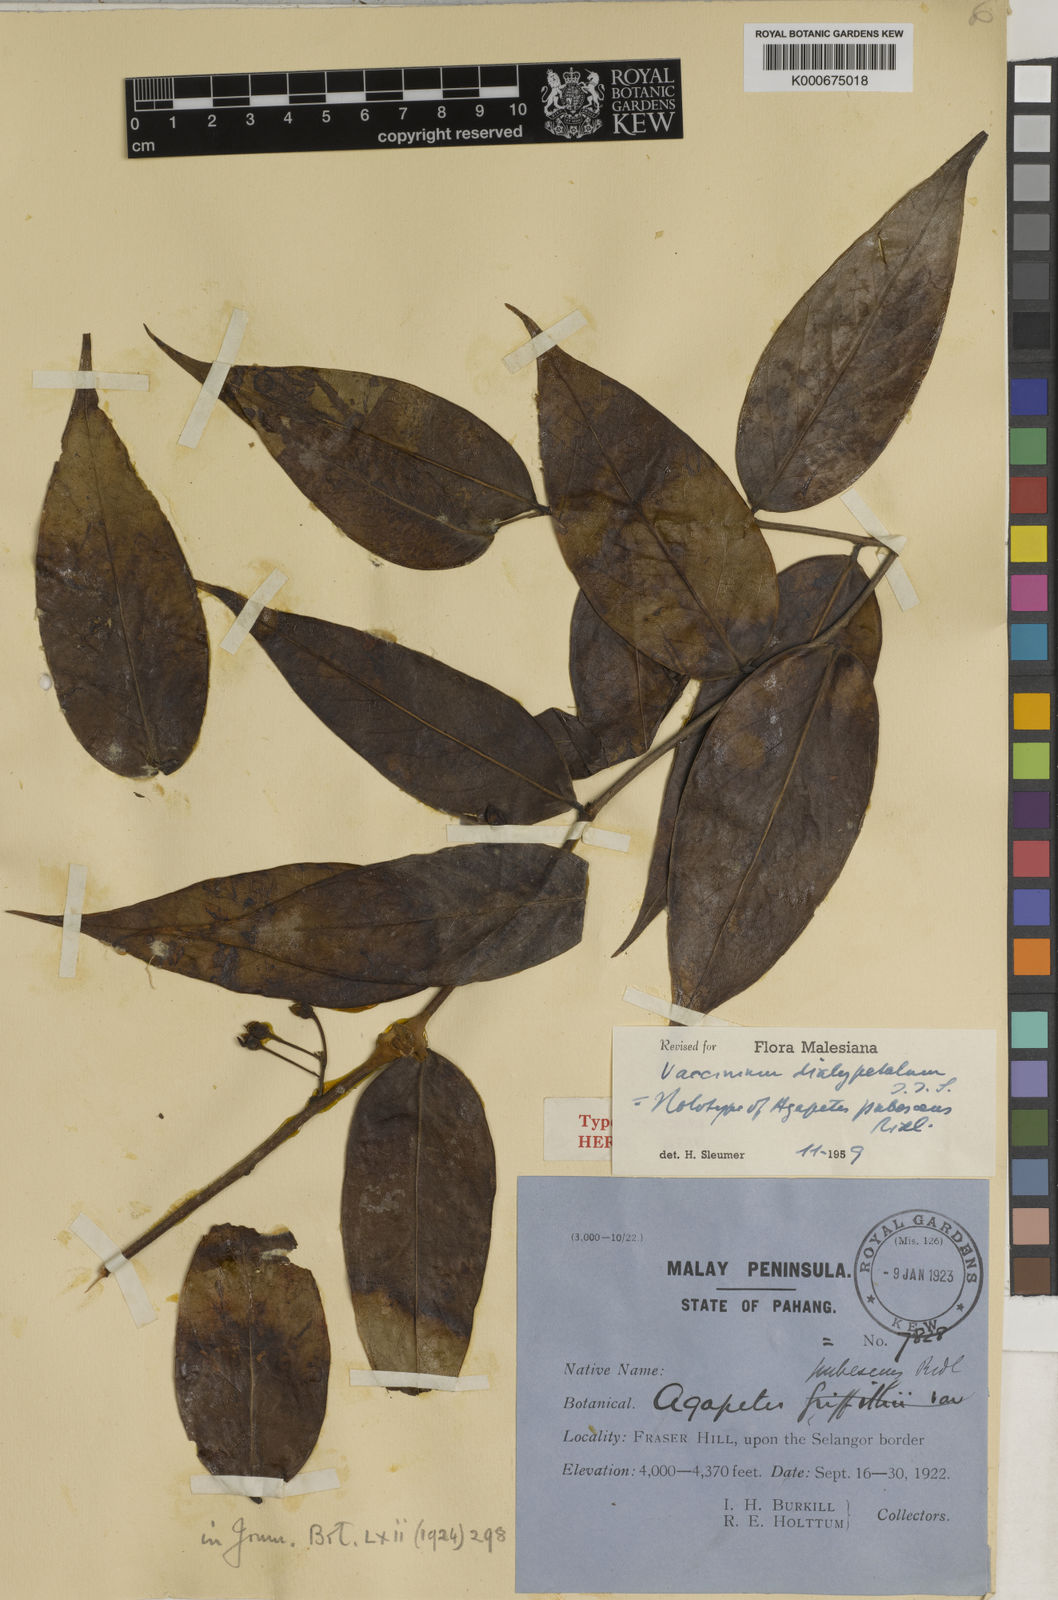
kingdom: Plantae
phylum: Tracheophyta
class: Magnoliopsida
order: Ericales
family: Ericaceae
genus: Vaccinium
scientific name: Vaccinium dialypetalum
